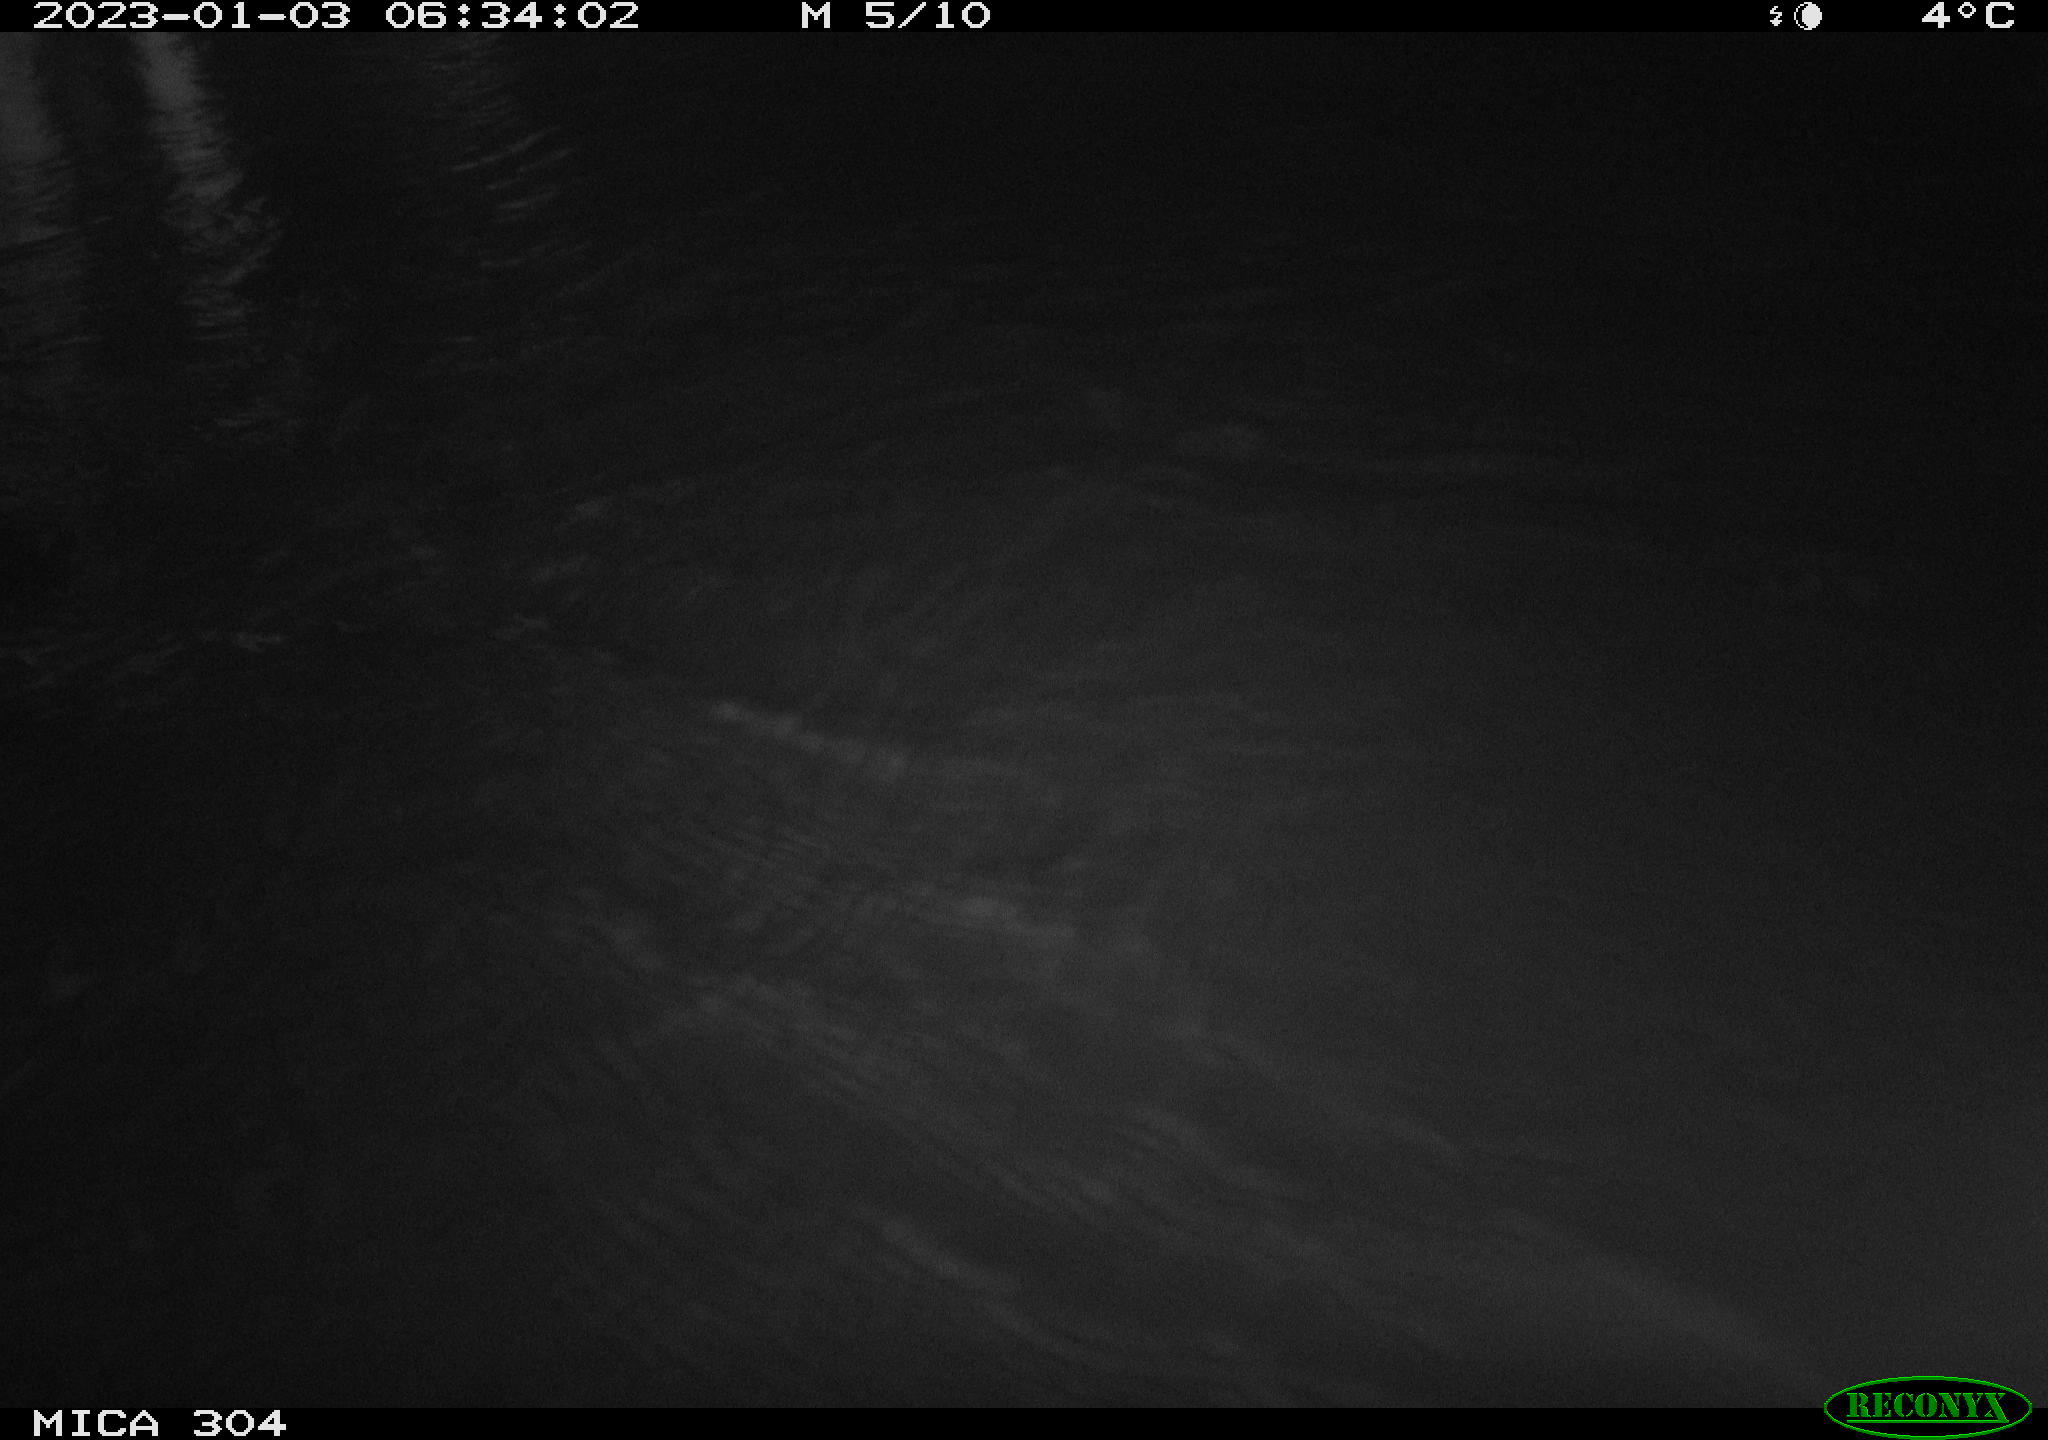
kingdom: Animalia
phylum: Chordata
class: Aves
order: Anseriformes
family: Anatidae
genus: Anas
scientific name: Anas
